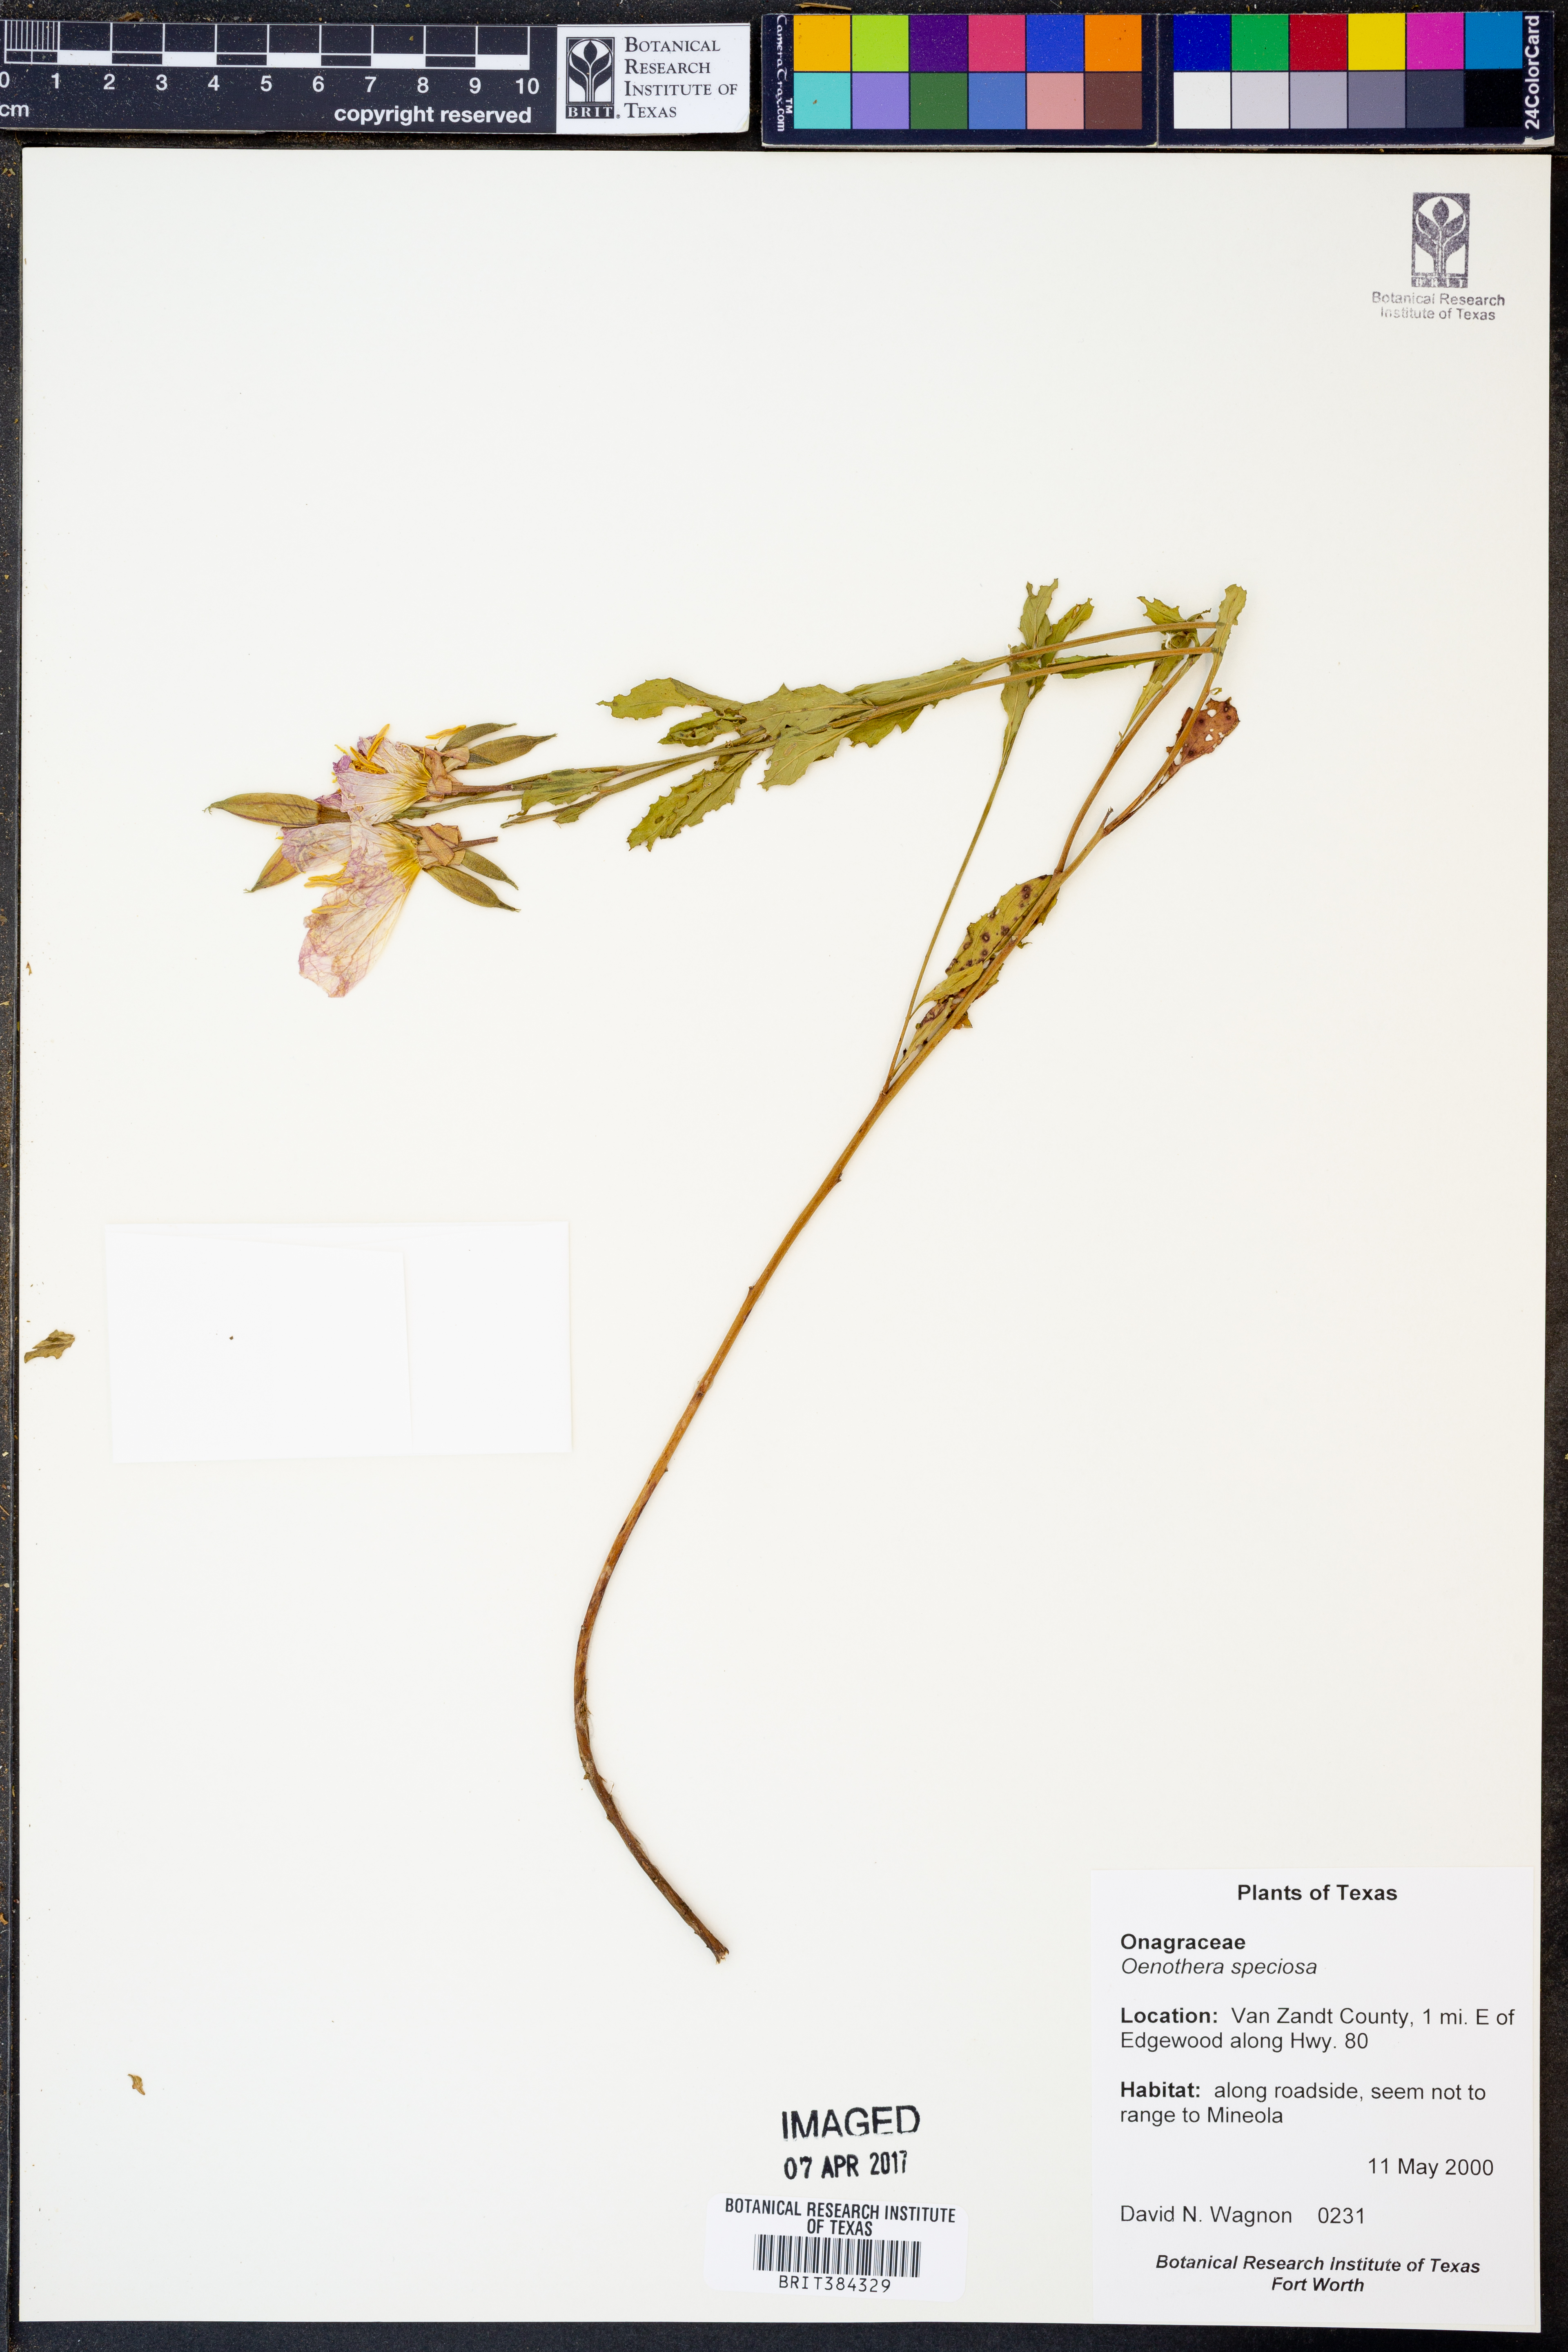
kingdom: Plantae
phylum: Tracheophyta
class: Magnoliopsida
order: Myrtales
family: Onagraceae
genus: Oenothera
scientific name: Oenothera speciosa
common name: White evening-primrose
